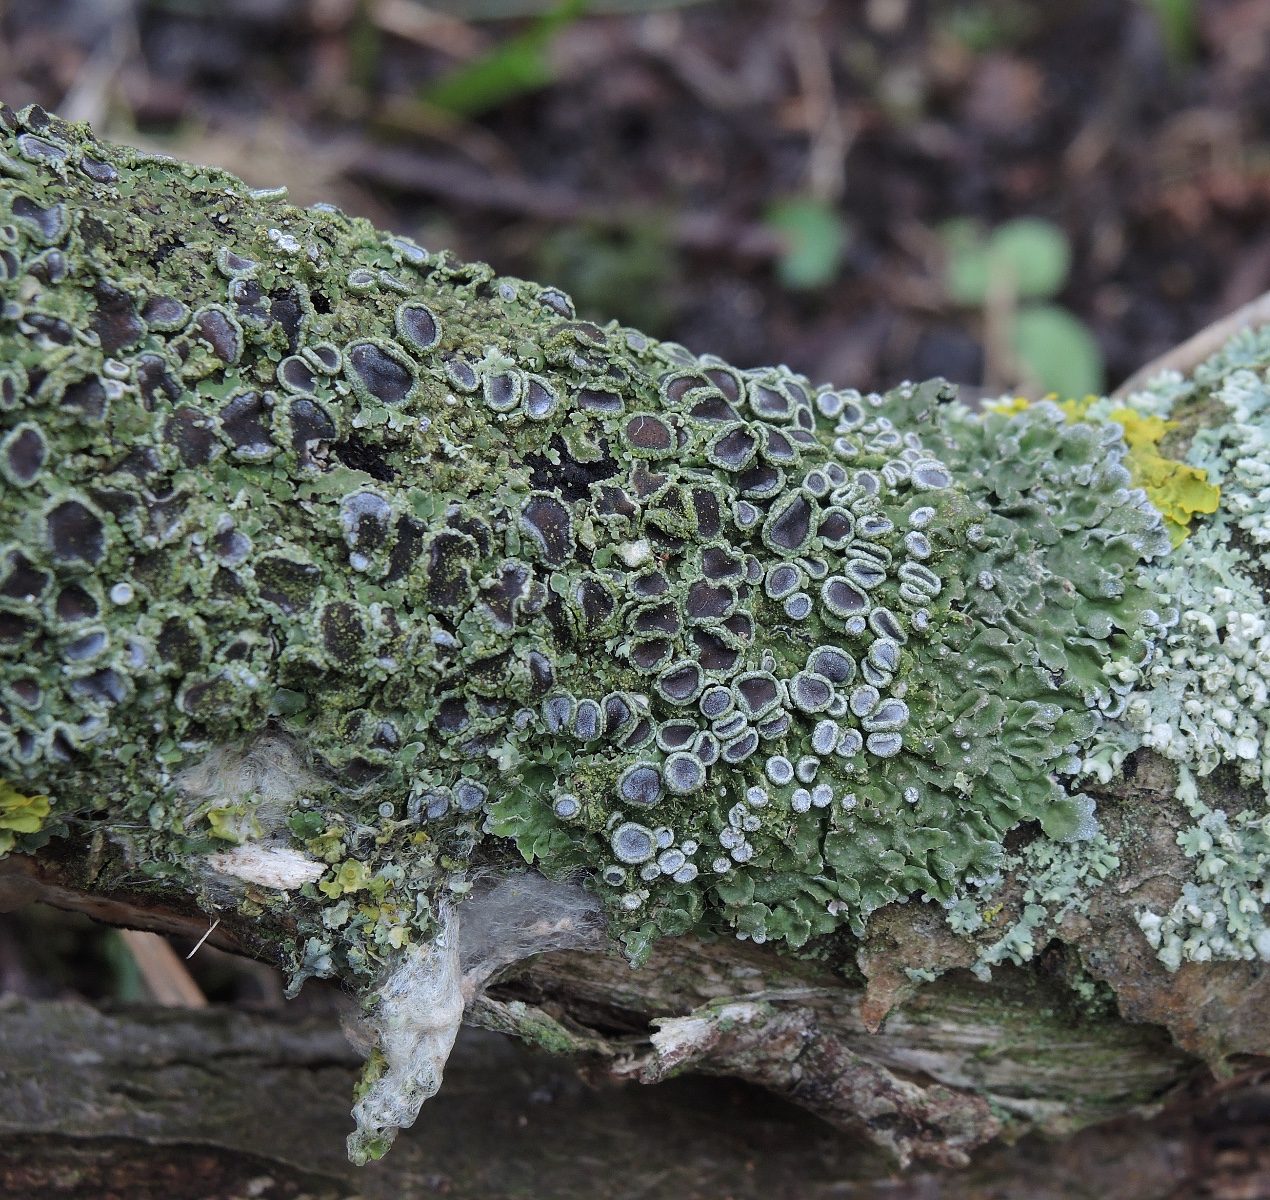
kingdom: Fungi
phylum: Ascomycota
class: Lecanoromycetes
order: Caliciales
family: Physciaceae
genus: Physconia
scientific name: Physconia distorta
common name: pudret dugrosetlav
